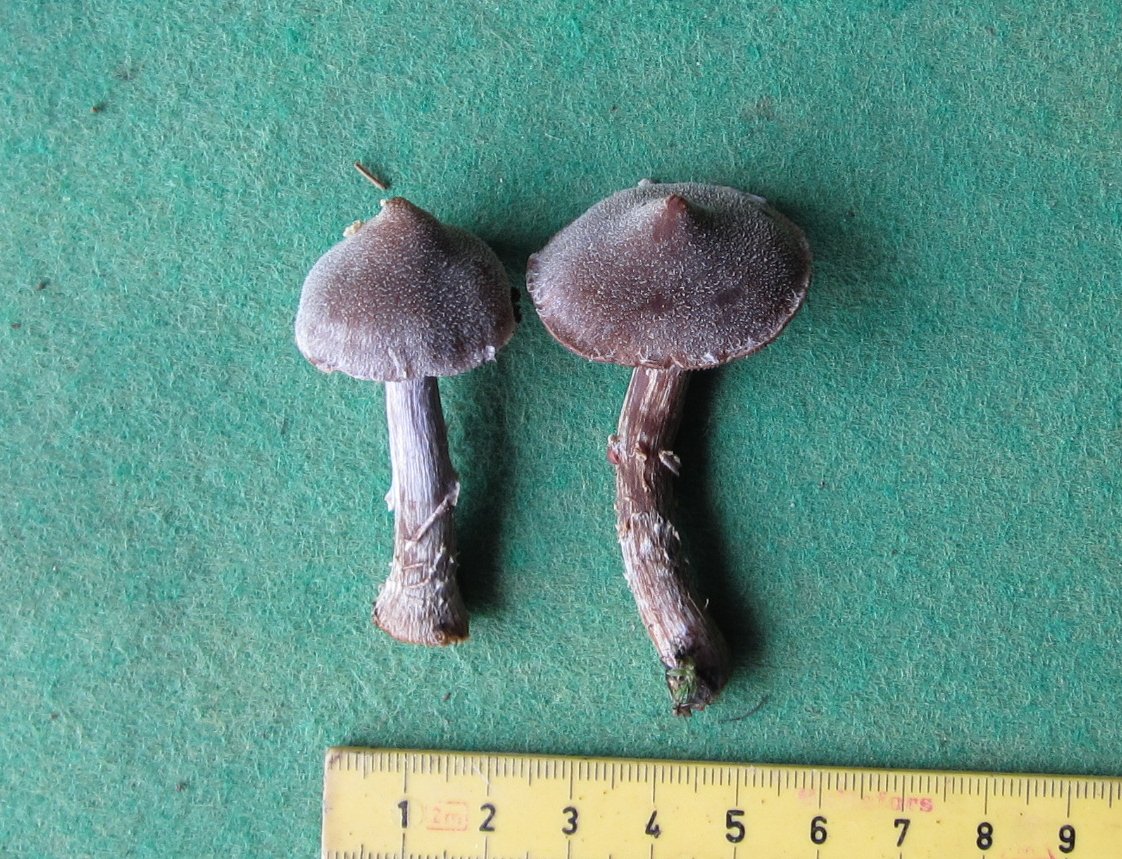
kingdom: Fungi
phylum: Basidiomycota
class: Agaricomycetes
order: Agaricales
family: Cortinariaceae
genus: Cortinarius
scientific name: Cortinarius
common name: pelargonie-slørhat
